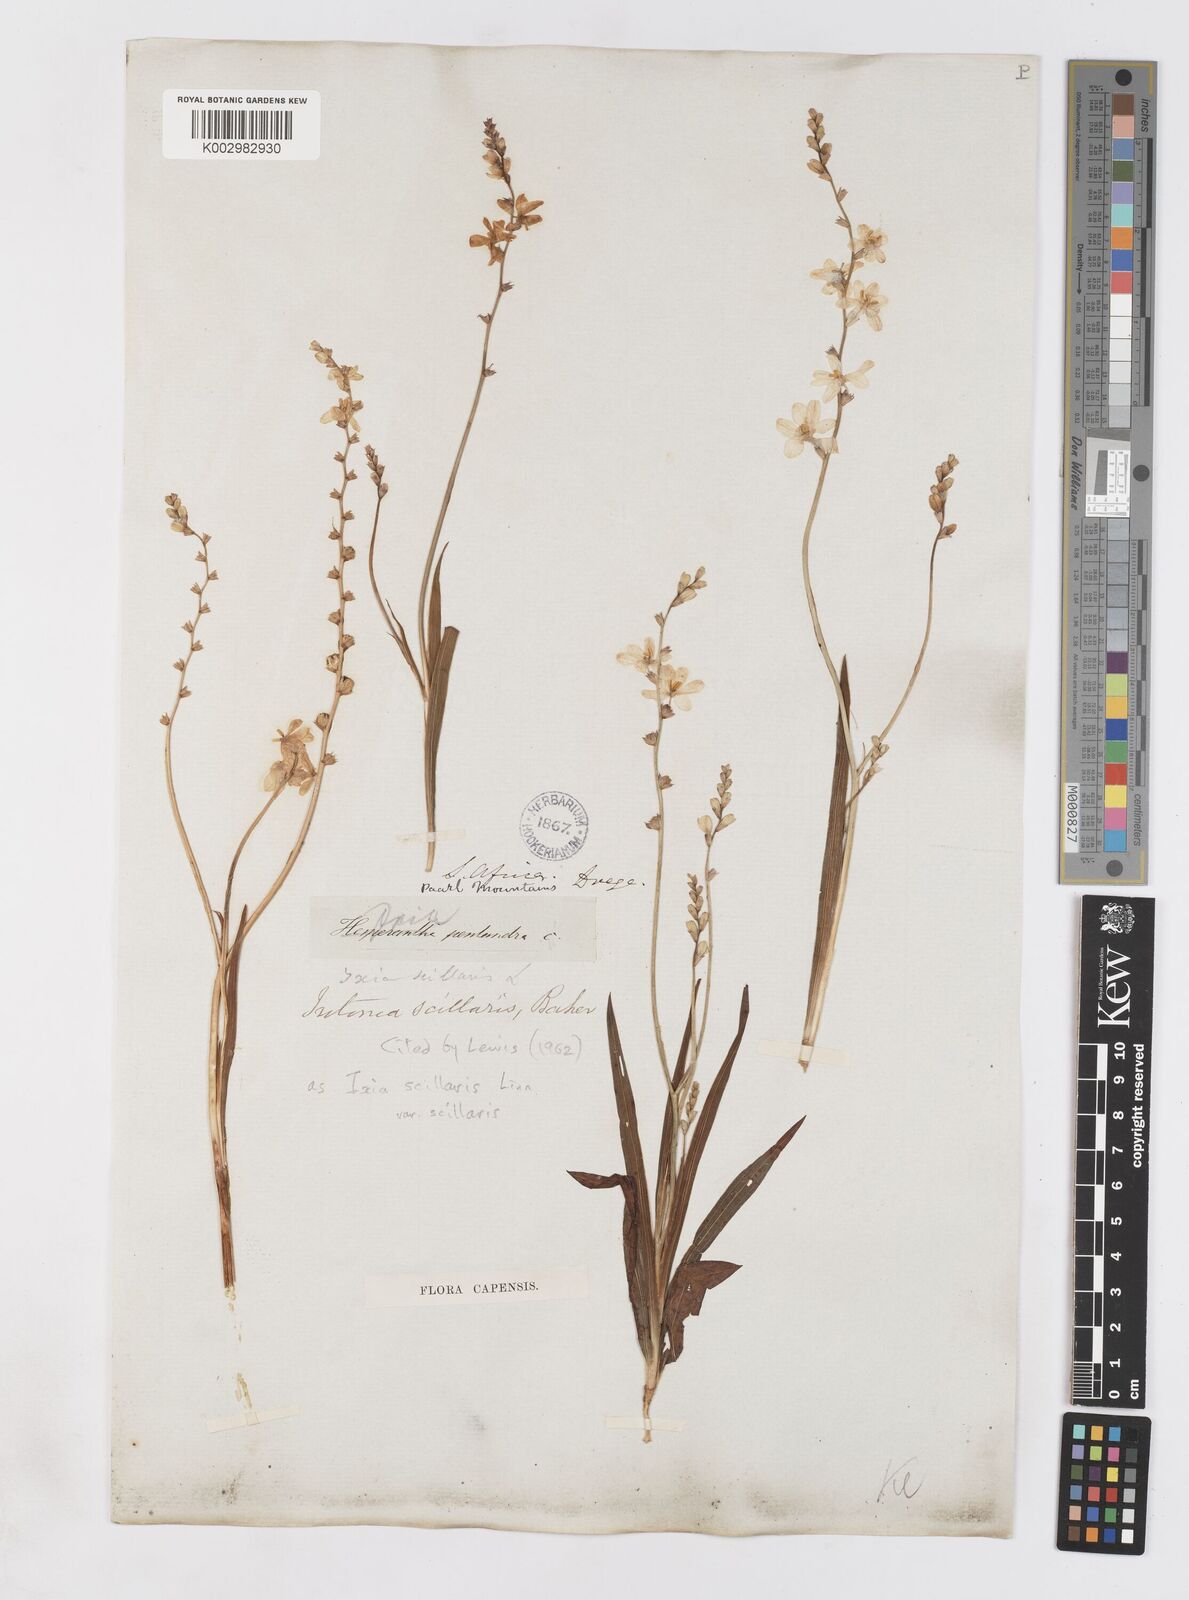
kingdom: Plantae
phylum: Tracheophyta
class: Liliopsida
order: Asparagales
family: Iridaceae
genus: Ixia
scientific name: Ixia scillaris
